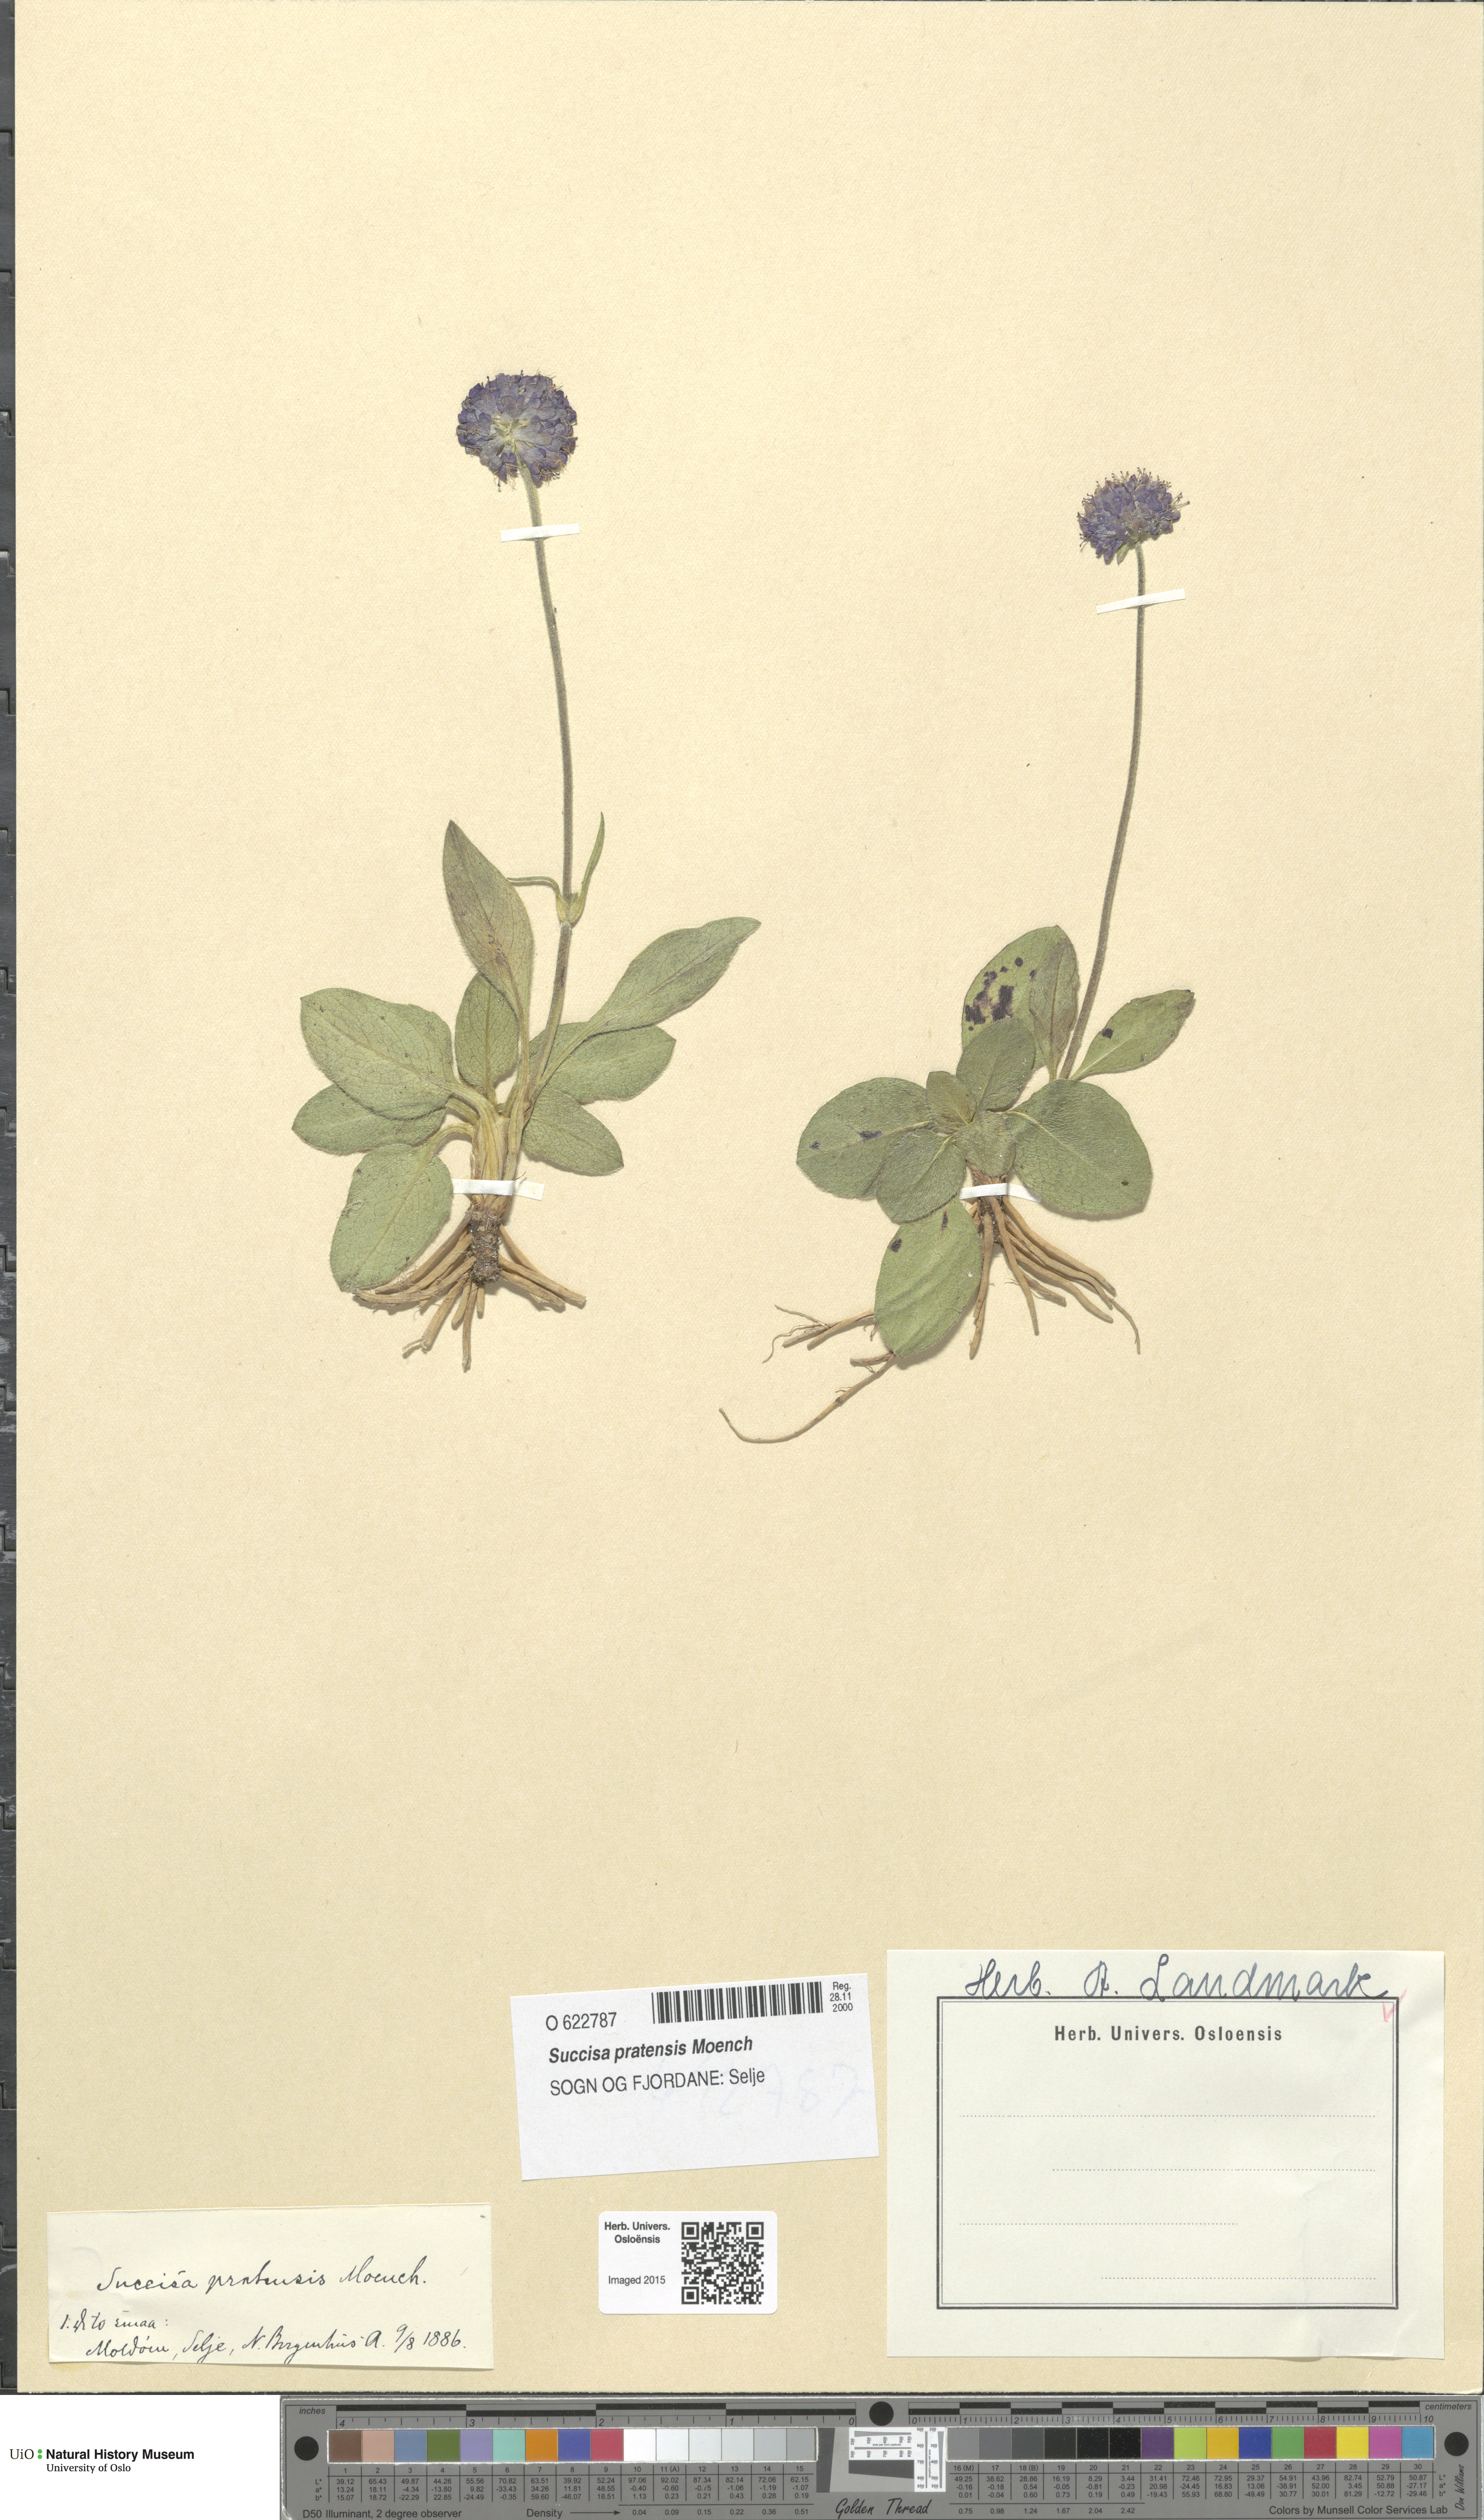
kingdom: Plantae
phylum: Tracheophyta
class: Magnoliopsida
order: Dipsacales
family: Caprifoliaceae
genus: Succisa
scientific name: Succisa pratensis
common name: Devil's-bit
